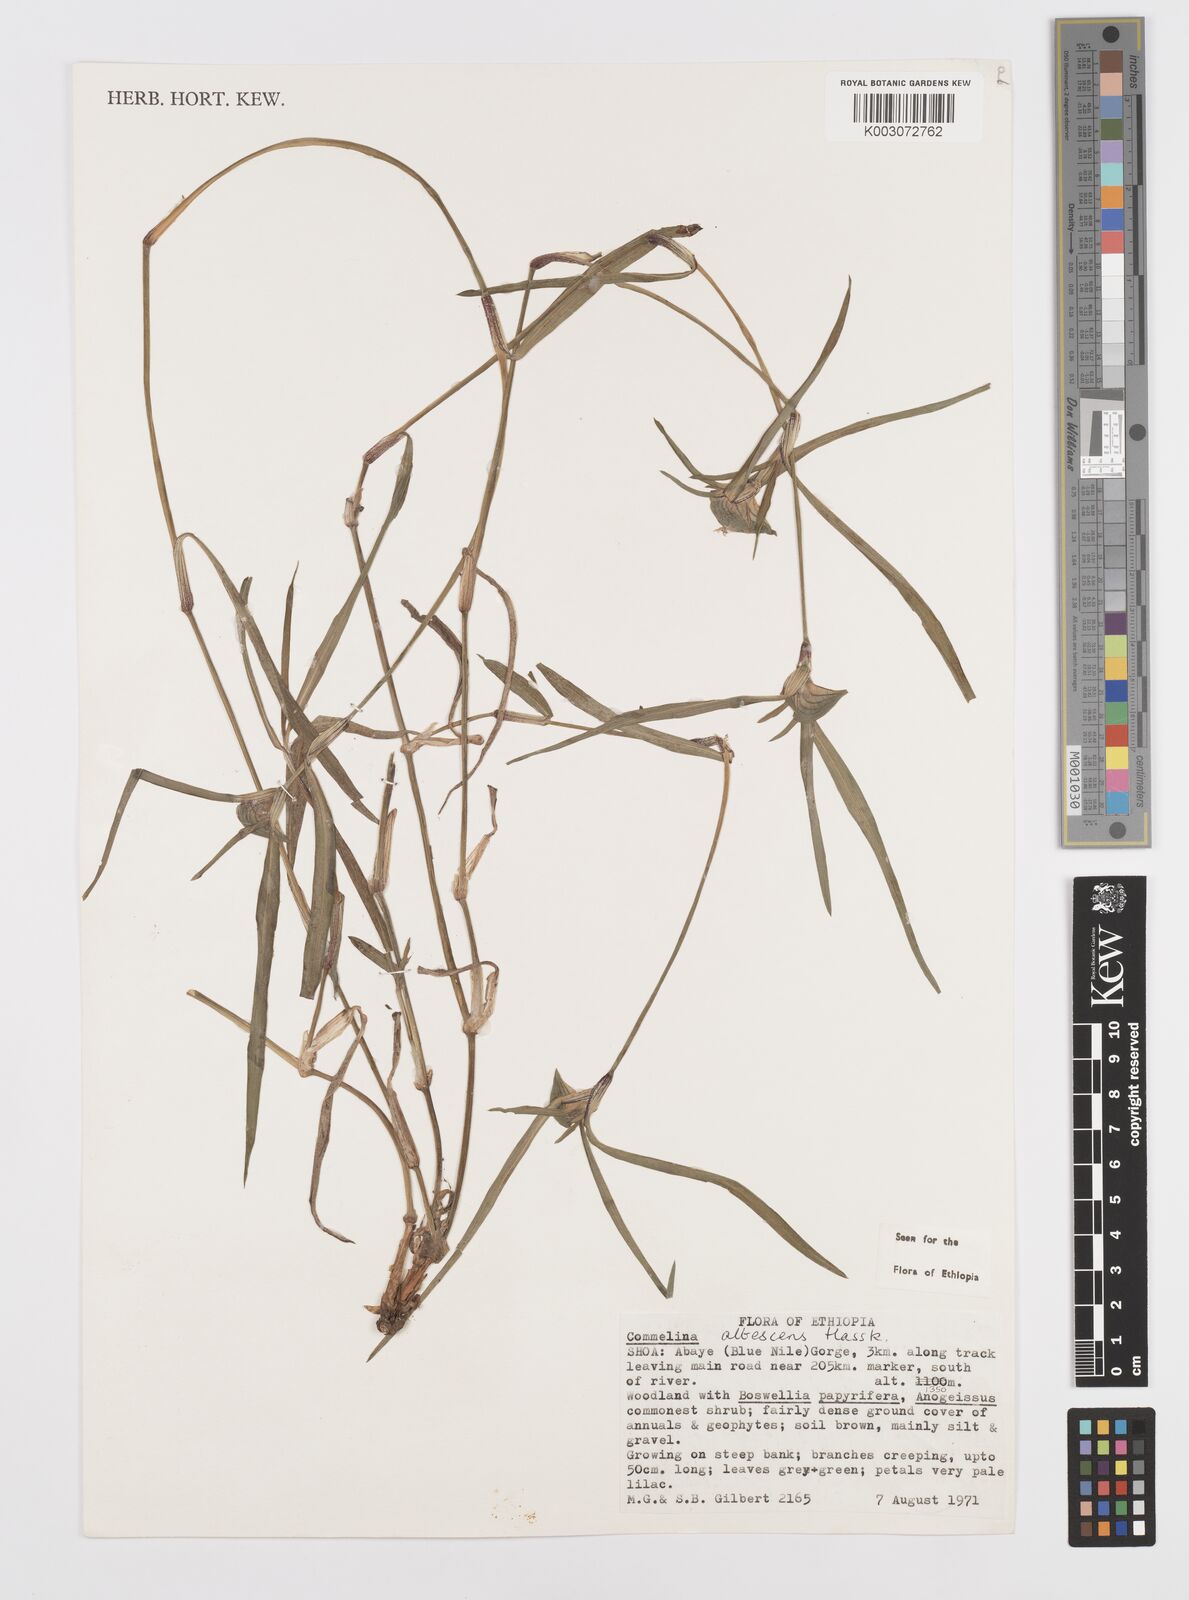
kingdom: Plantae
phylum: Tracheophyta
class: Liliopsida
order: Commelinales
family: Commelinaceae
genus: Commelina
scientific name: Commelina albescens
